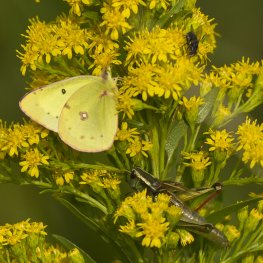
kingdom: Animalia
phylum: Arthropoda
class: Insecta
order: Lepidoptera
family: Pieridae
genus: Colias
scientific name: Colias philodice
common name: Clouded Sulphur
